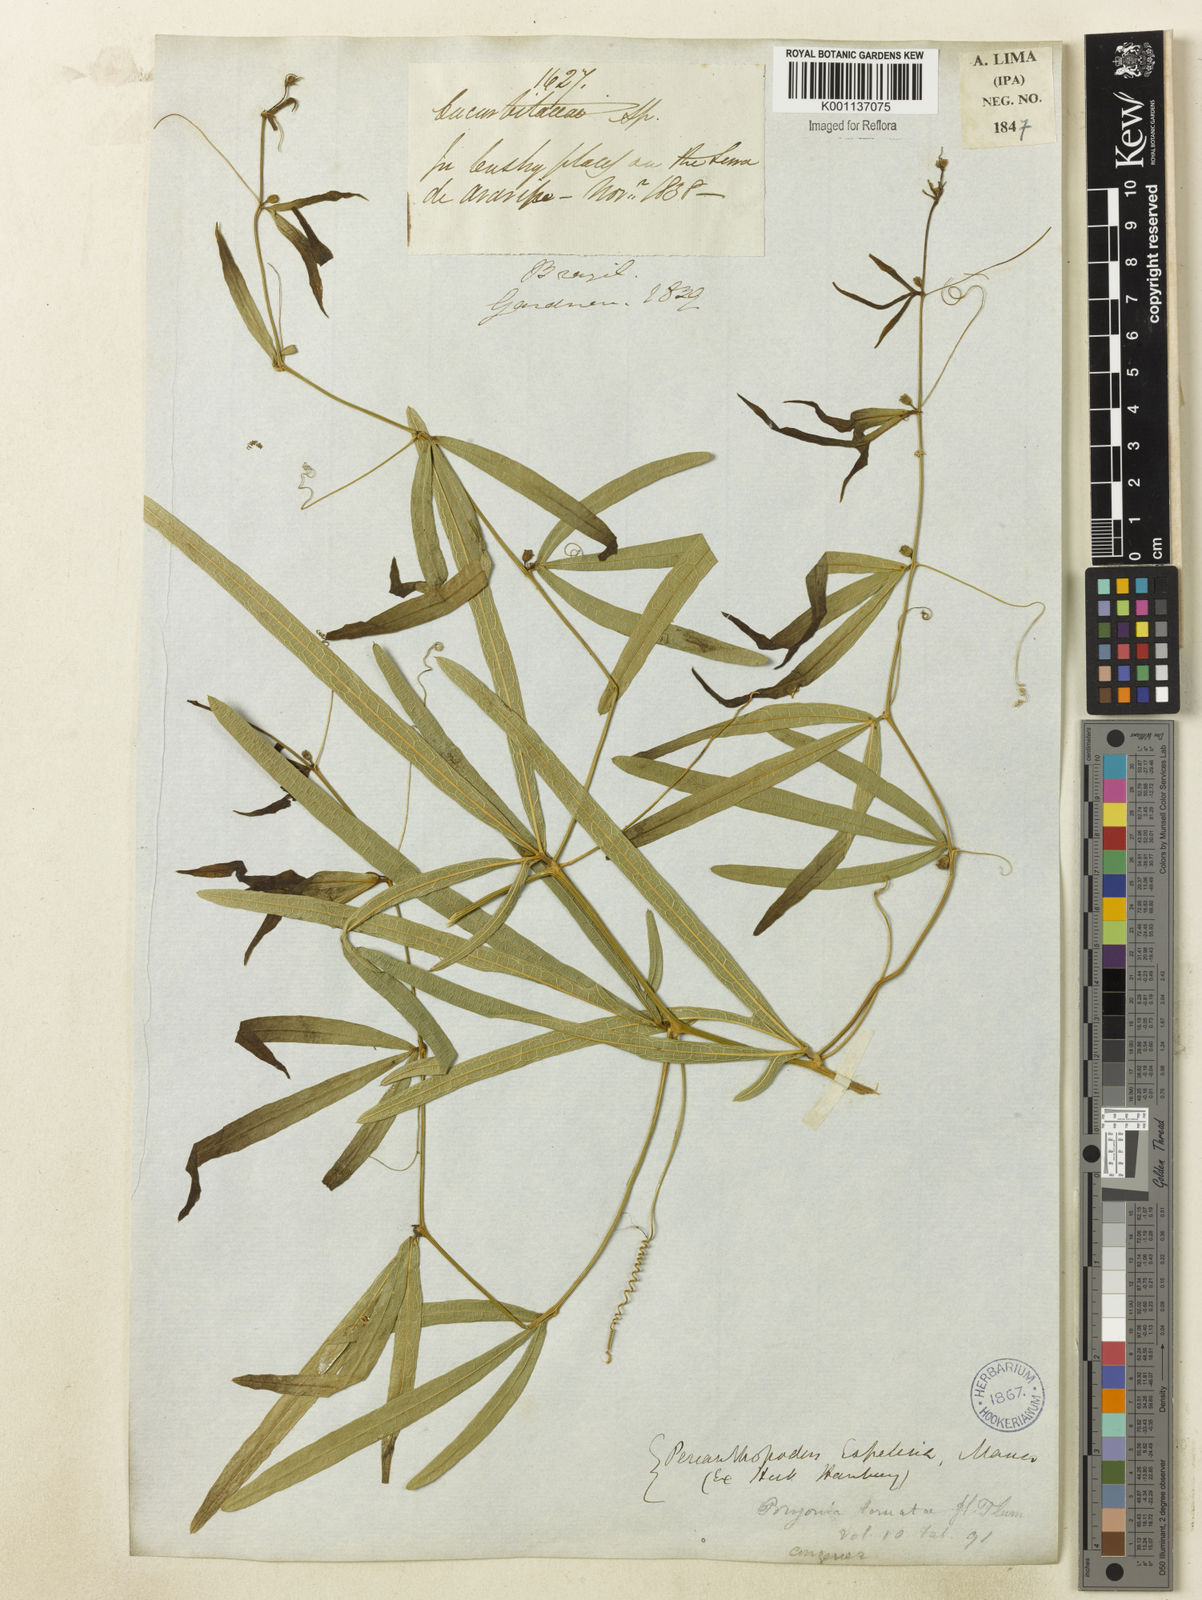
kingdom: Plantae
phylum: Tracheophyta
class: Magnoliopsida
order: Cucurbitales
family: Cucurbitaceae
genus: Cayaponia
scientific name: Cayaponia espelina
